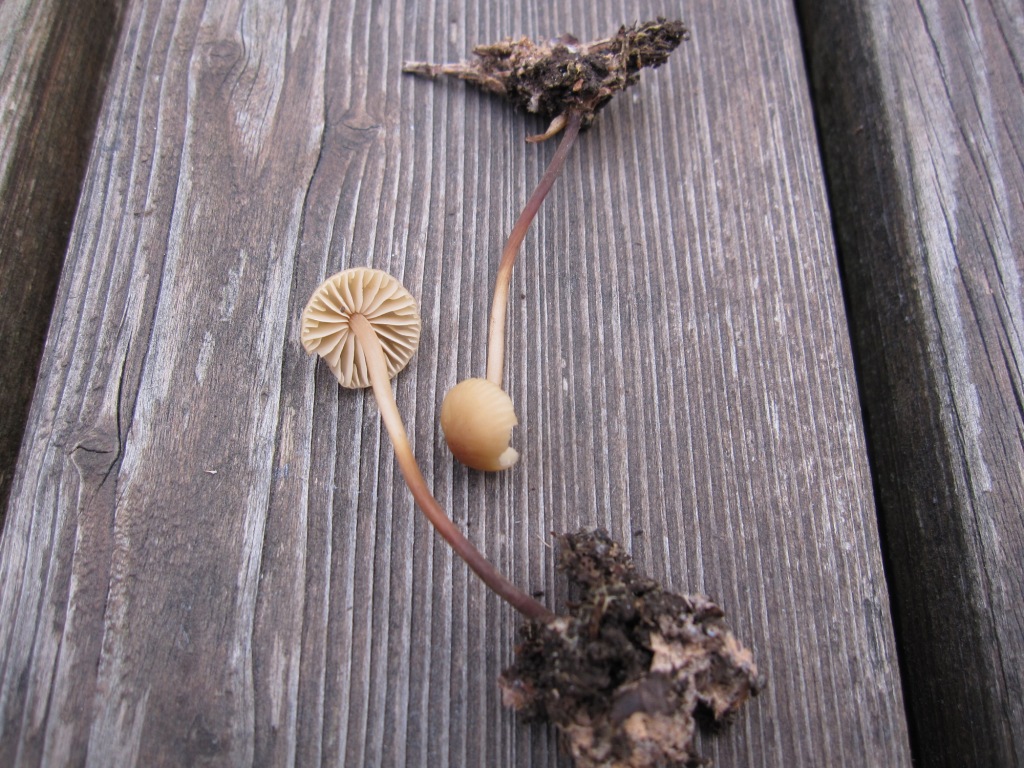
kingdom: Fungi
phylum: Basidiomycota
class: Agaricomycetes
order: Agaricales
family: Marasmiaceae
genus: Marasmius
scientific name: Marasmius torquescens
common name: filtfodet bruskhat
